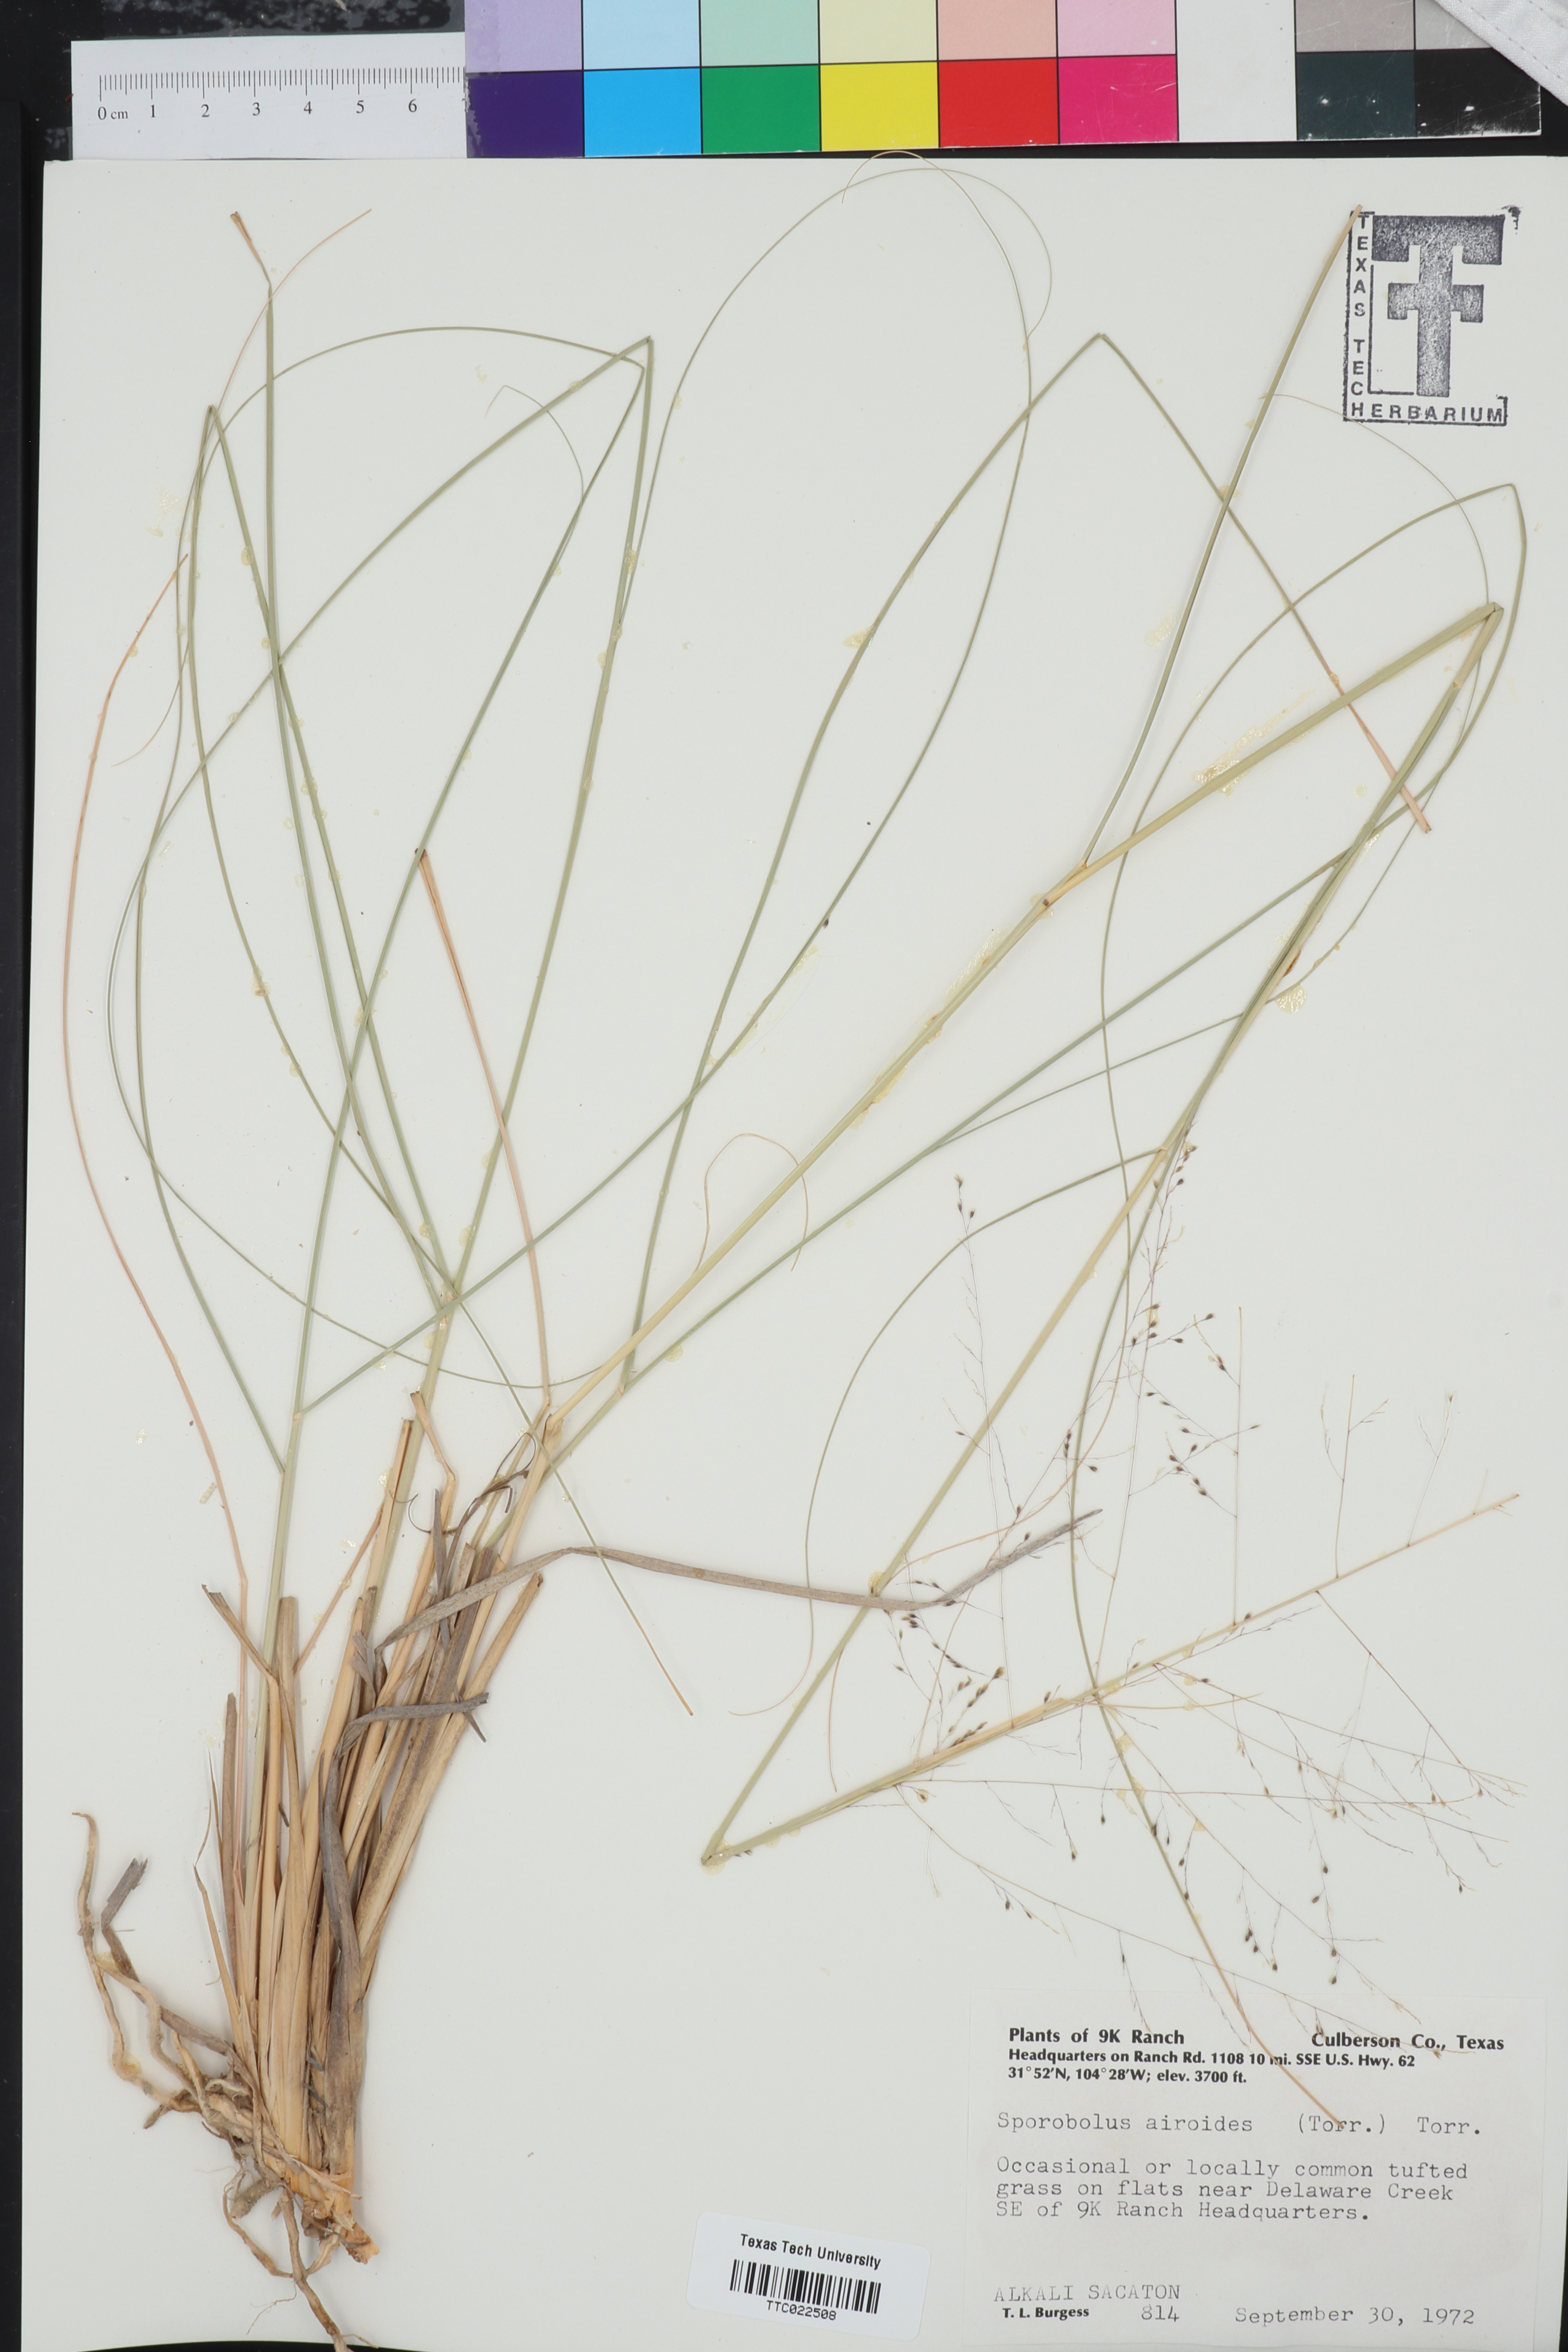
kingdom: Plantae
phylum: Tracheophyta
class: Liliopsida
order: Poales
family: Poaceae
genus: Sporobolus
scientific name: Sporobolus airoides
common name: Alkali sacaton
